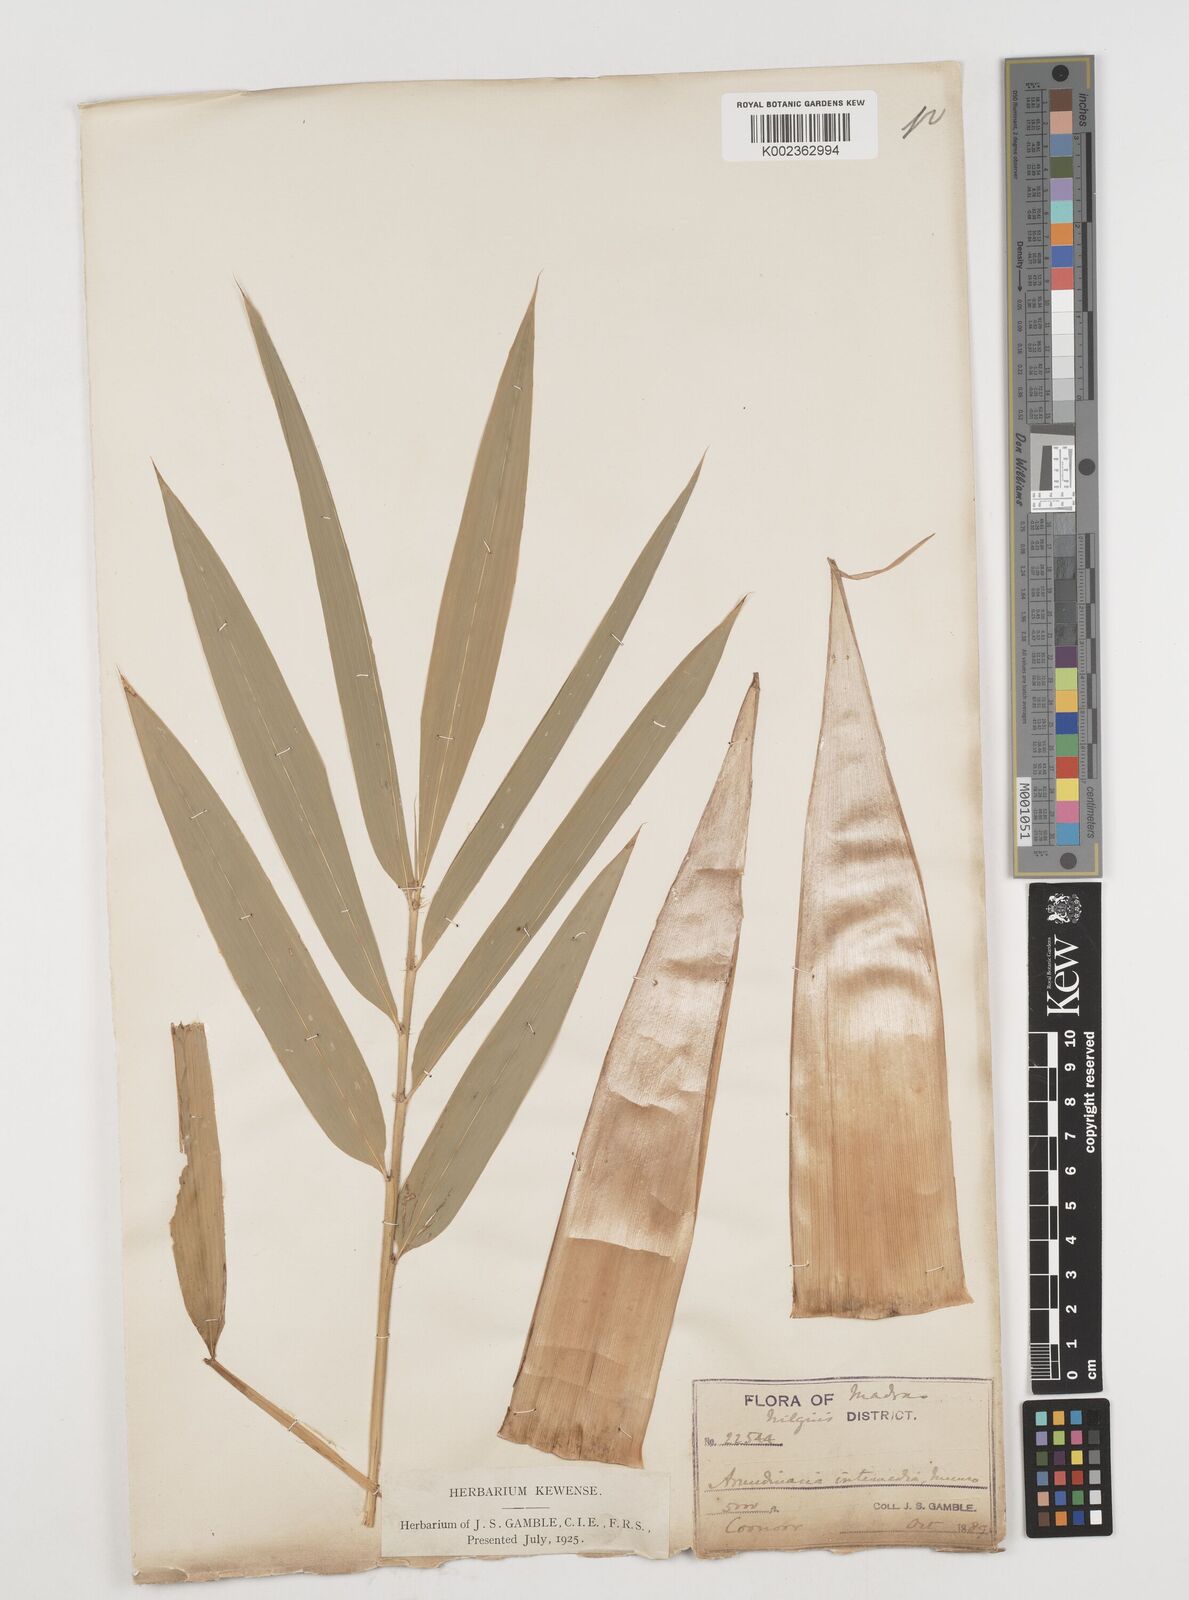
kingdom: Plantae
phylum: Tracheophyta
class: Liliopsida
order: Poales
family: Poaceae
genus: Drepanostachyum
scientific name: Drepanostachyum intermedium
